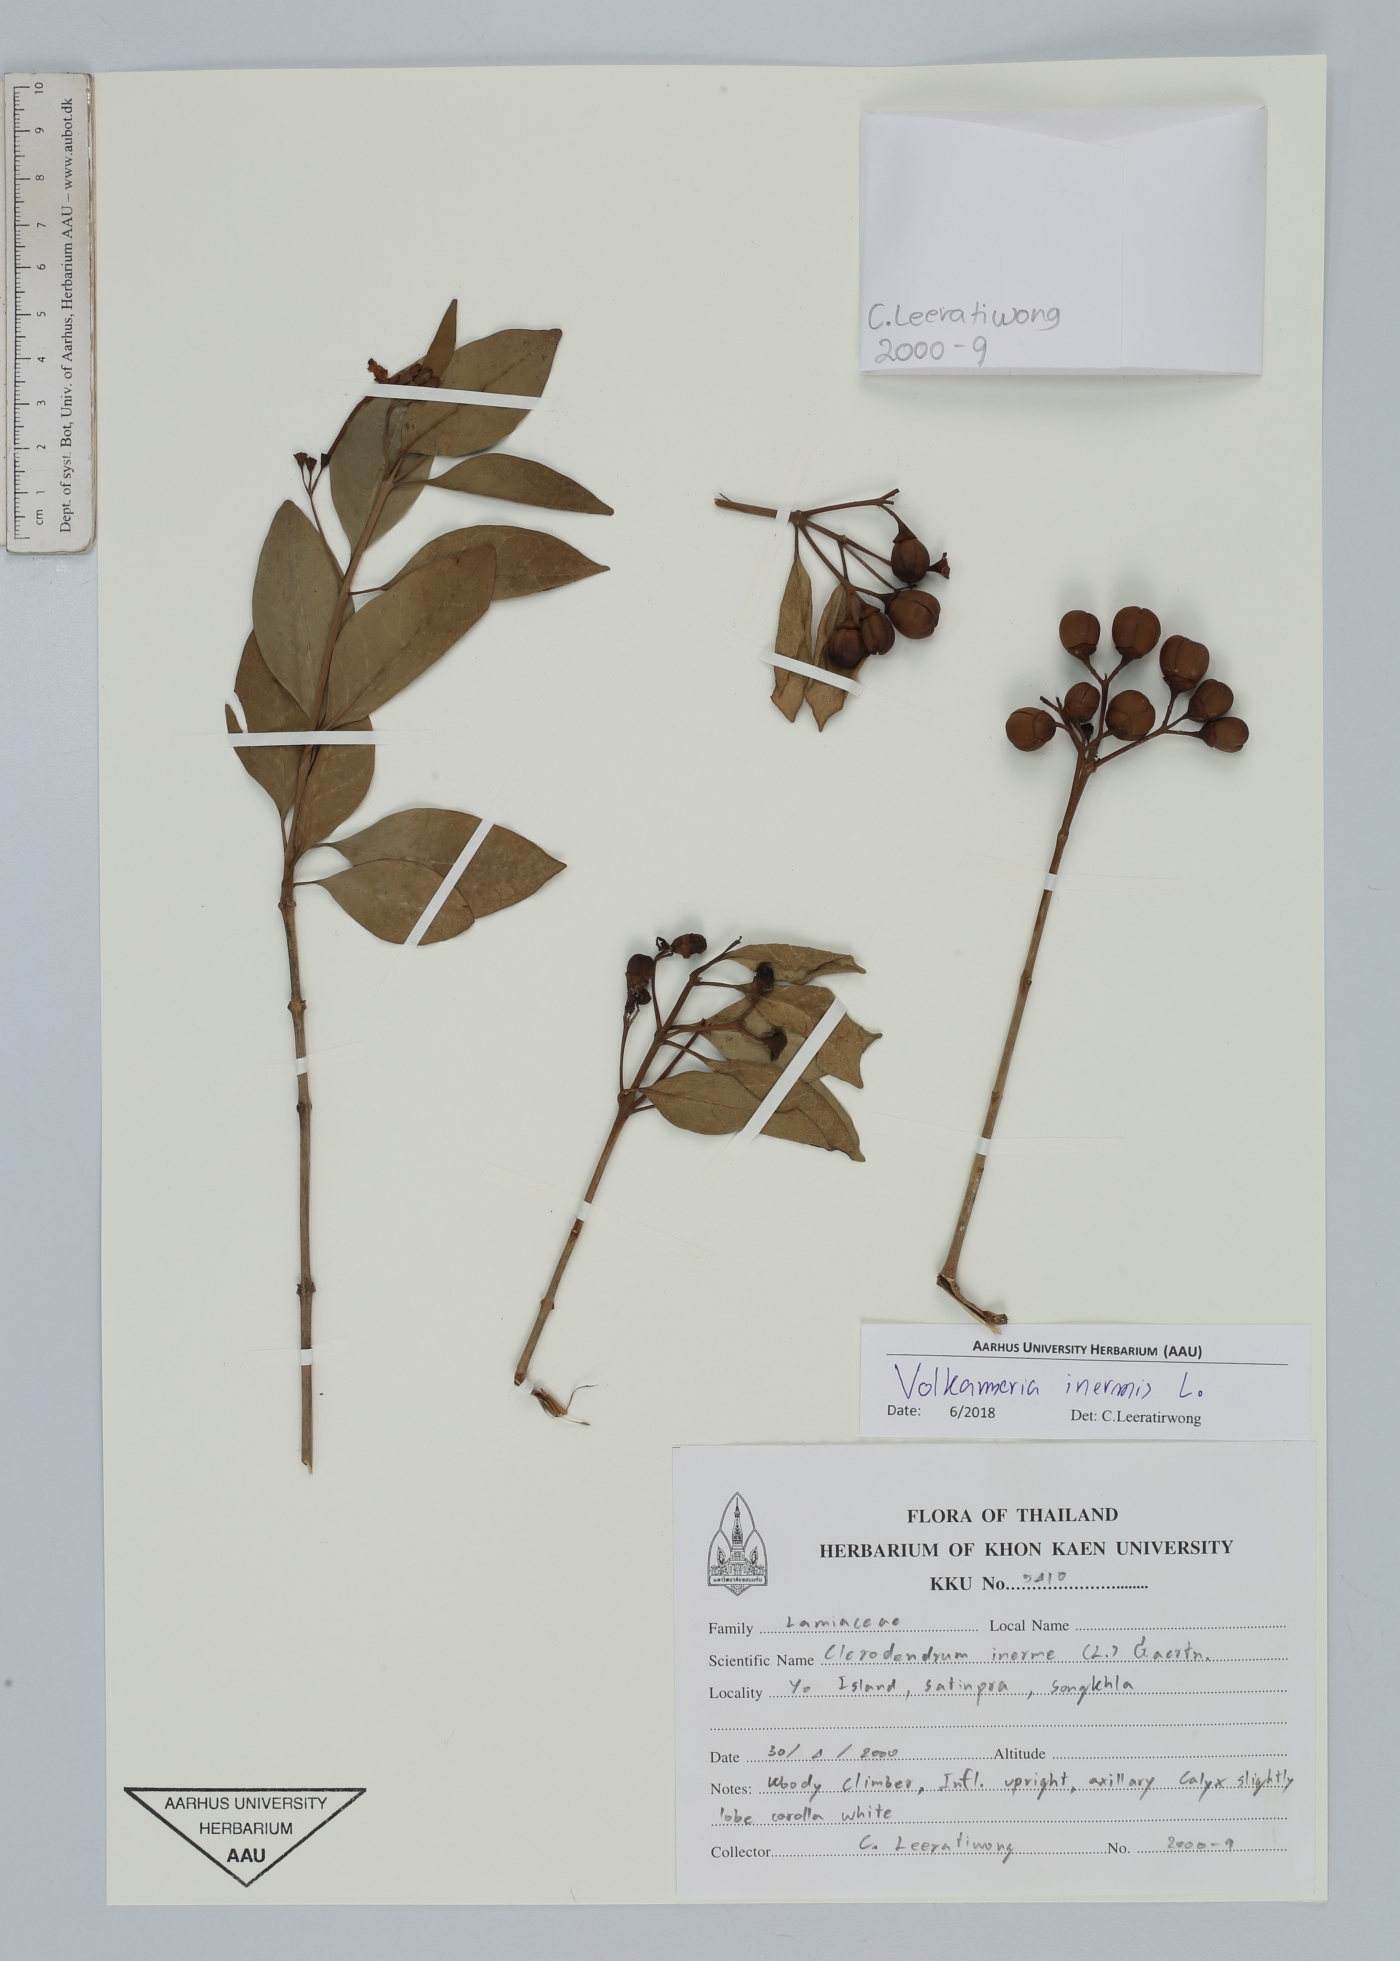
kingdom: Plantae
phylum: Tracheophyta
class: Magnoliopsida
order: Lamiales
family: Lamiaceae
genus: Volkameria
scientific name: Volkameria inermis
